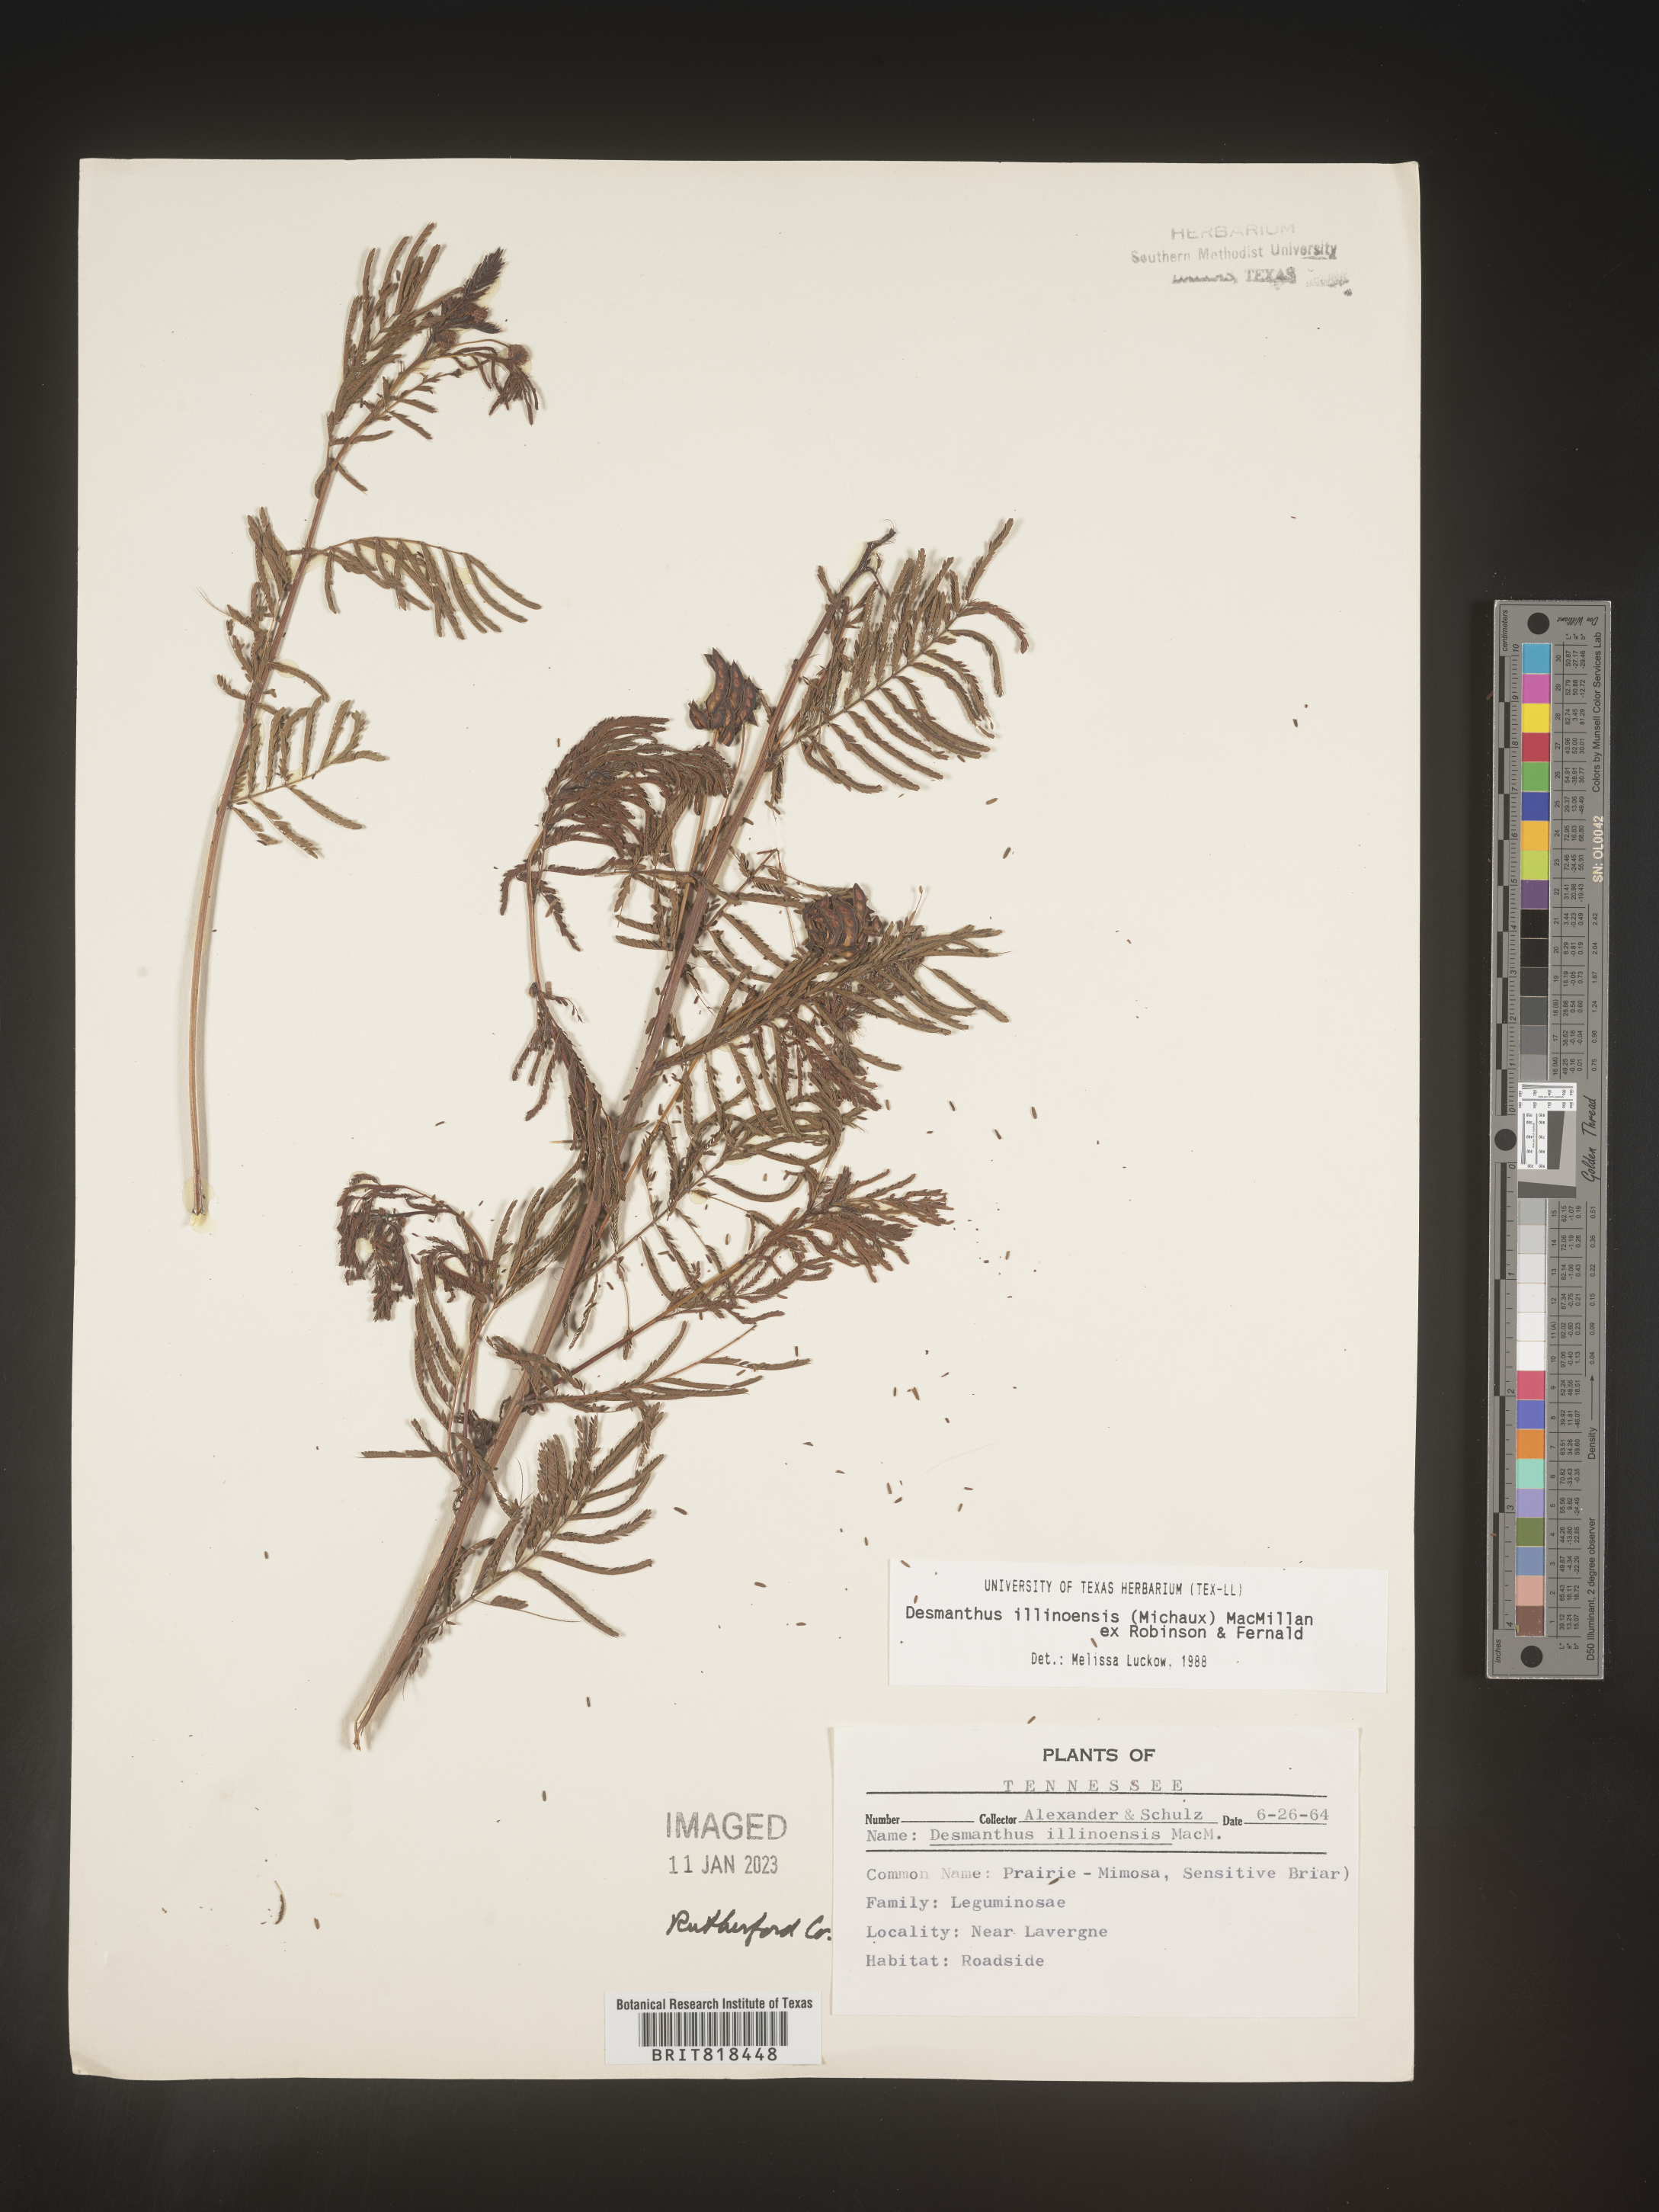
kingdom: Plantae
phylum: Tracheophyta
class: Magnoliopsida
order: Fabales
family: Fabaceae
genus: Desmanthus
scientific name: Desmanthus illinoensis
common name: Illinois bundle-flower
